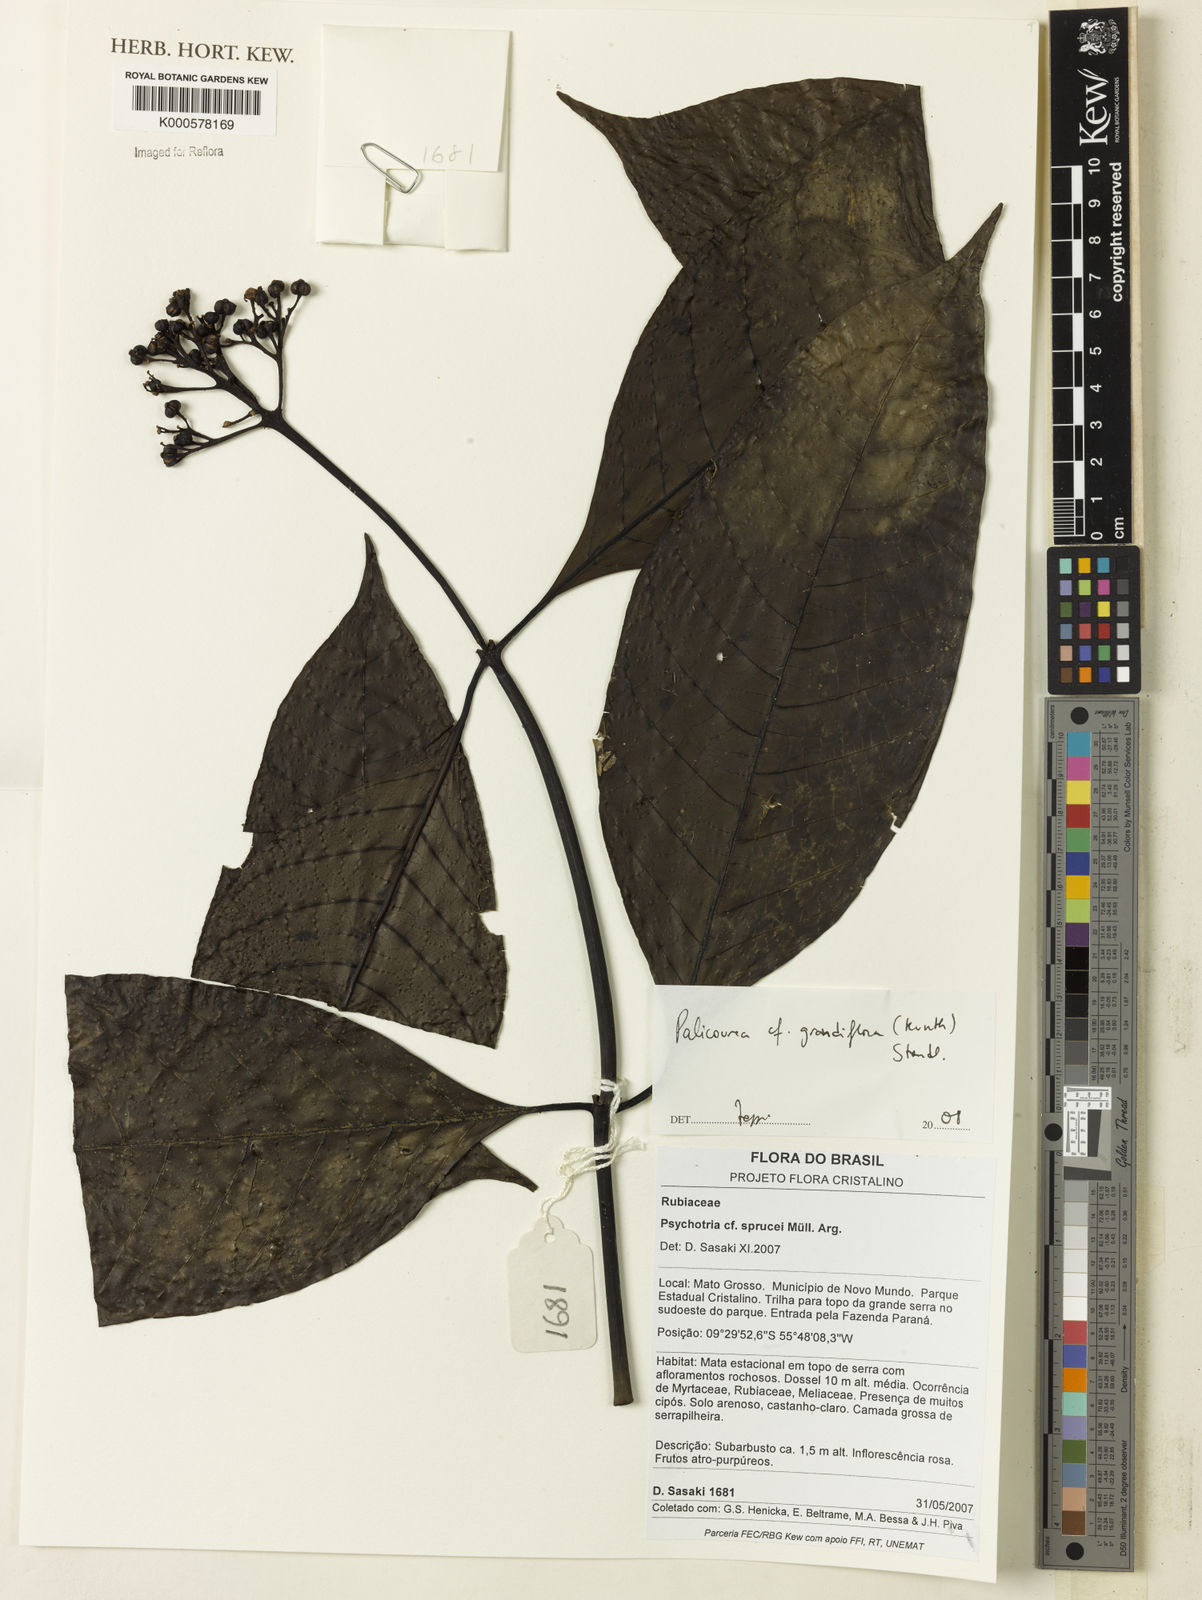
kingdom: Plantae
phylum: Tracheophyta
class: Magnoliopsida
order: Gentianales
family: Rubiaceae
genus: Palicourea
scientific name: Palicourea grandiflora
